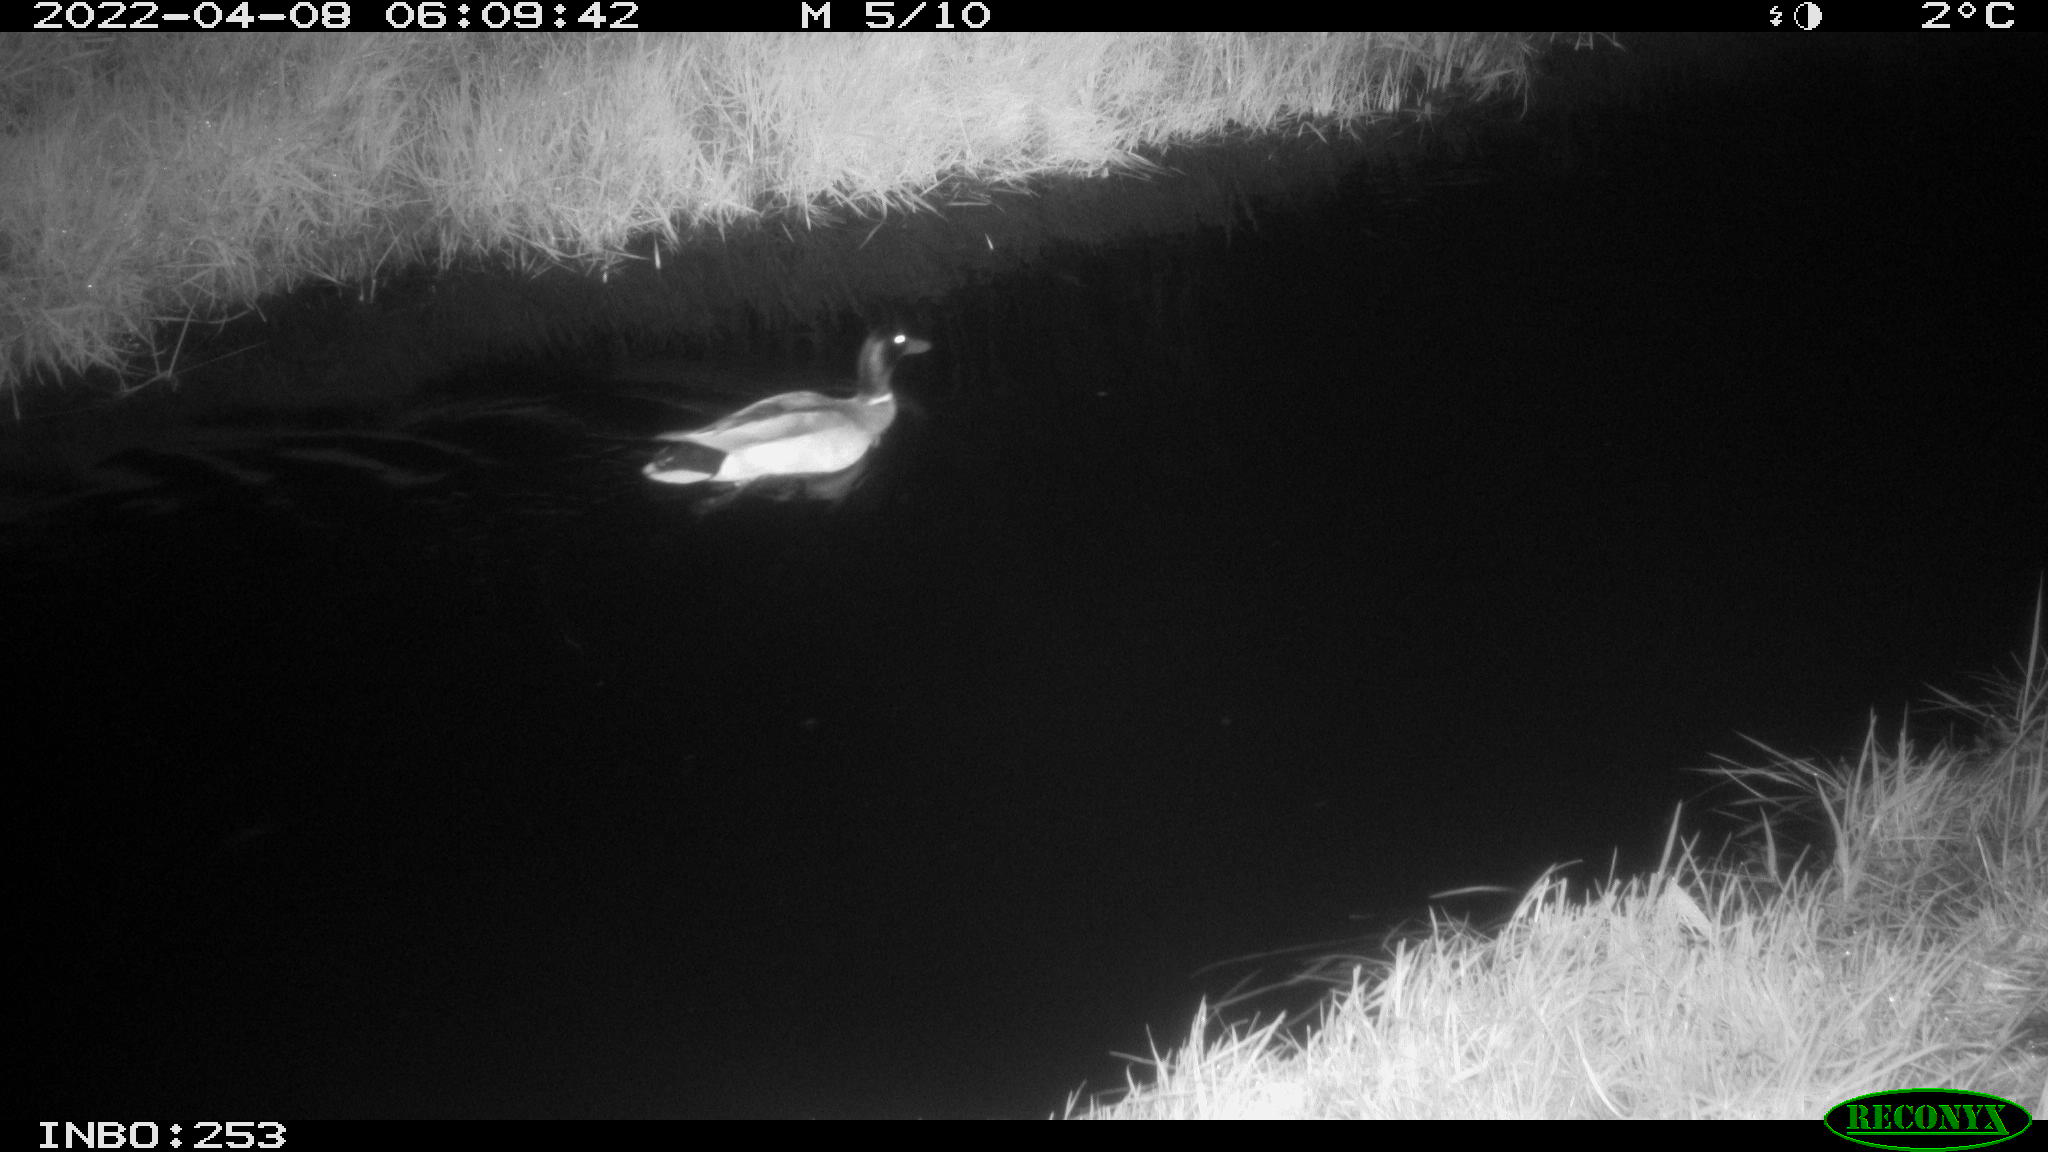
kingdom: Animalia
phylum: Chordata
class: Aves
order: Anseriformes
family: Anatidae
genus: Anas
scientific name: Anas platyrhynchos
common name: Mallard
